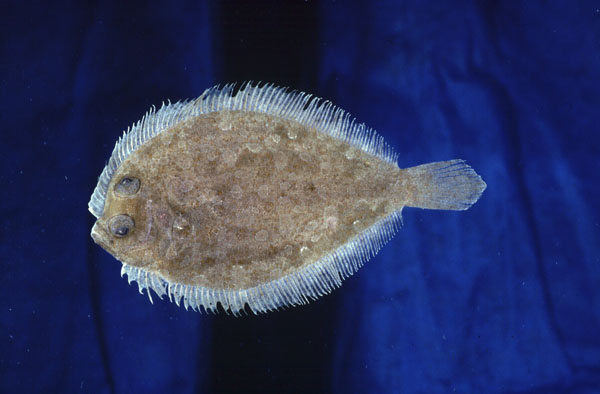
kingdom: Animalia
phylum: Chordata
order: Pleuronectiformes
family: Bothidae
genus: Bothus
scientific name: Bothus podas
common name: Wide-eyed flounder
